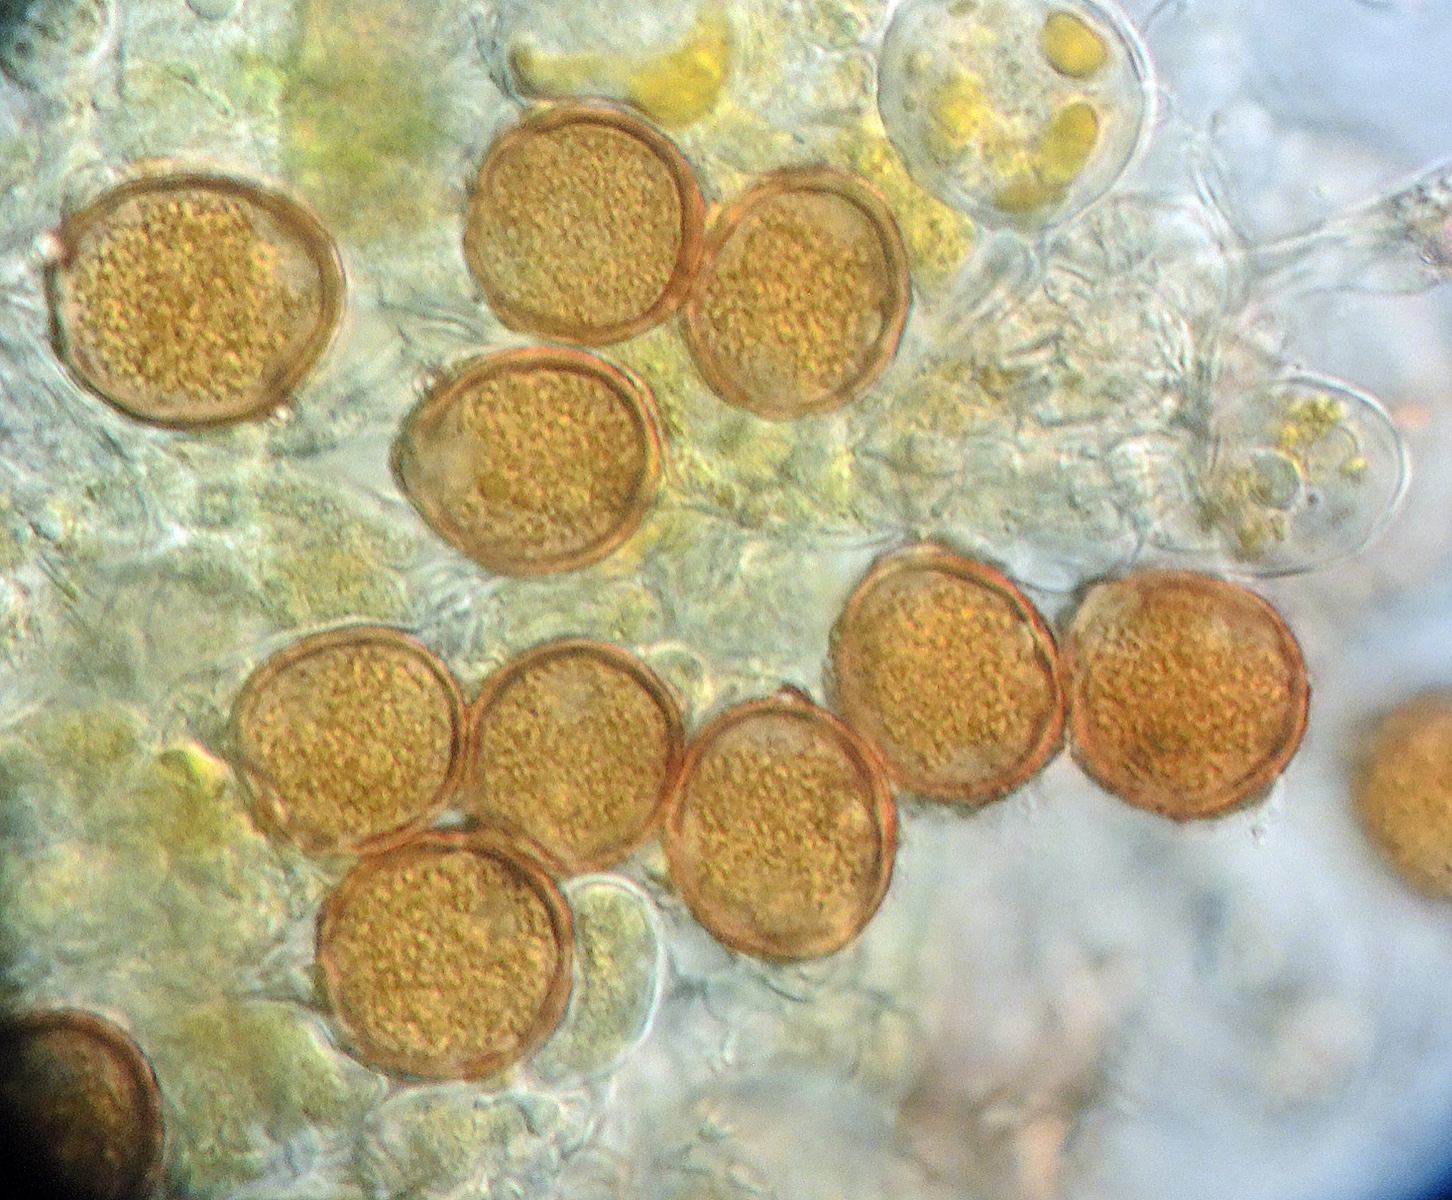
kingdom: Fungi
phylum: Basidiomycota
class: Pucciniomycetes
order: Pucciniales
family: Pucciniaceae
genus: Puccinia
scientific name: Puccinia galii-cruciatae
